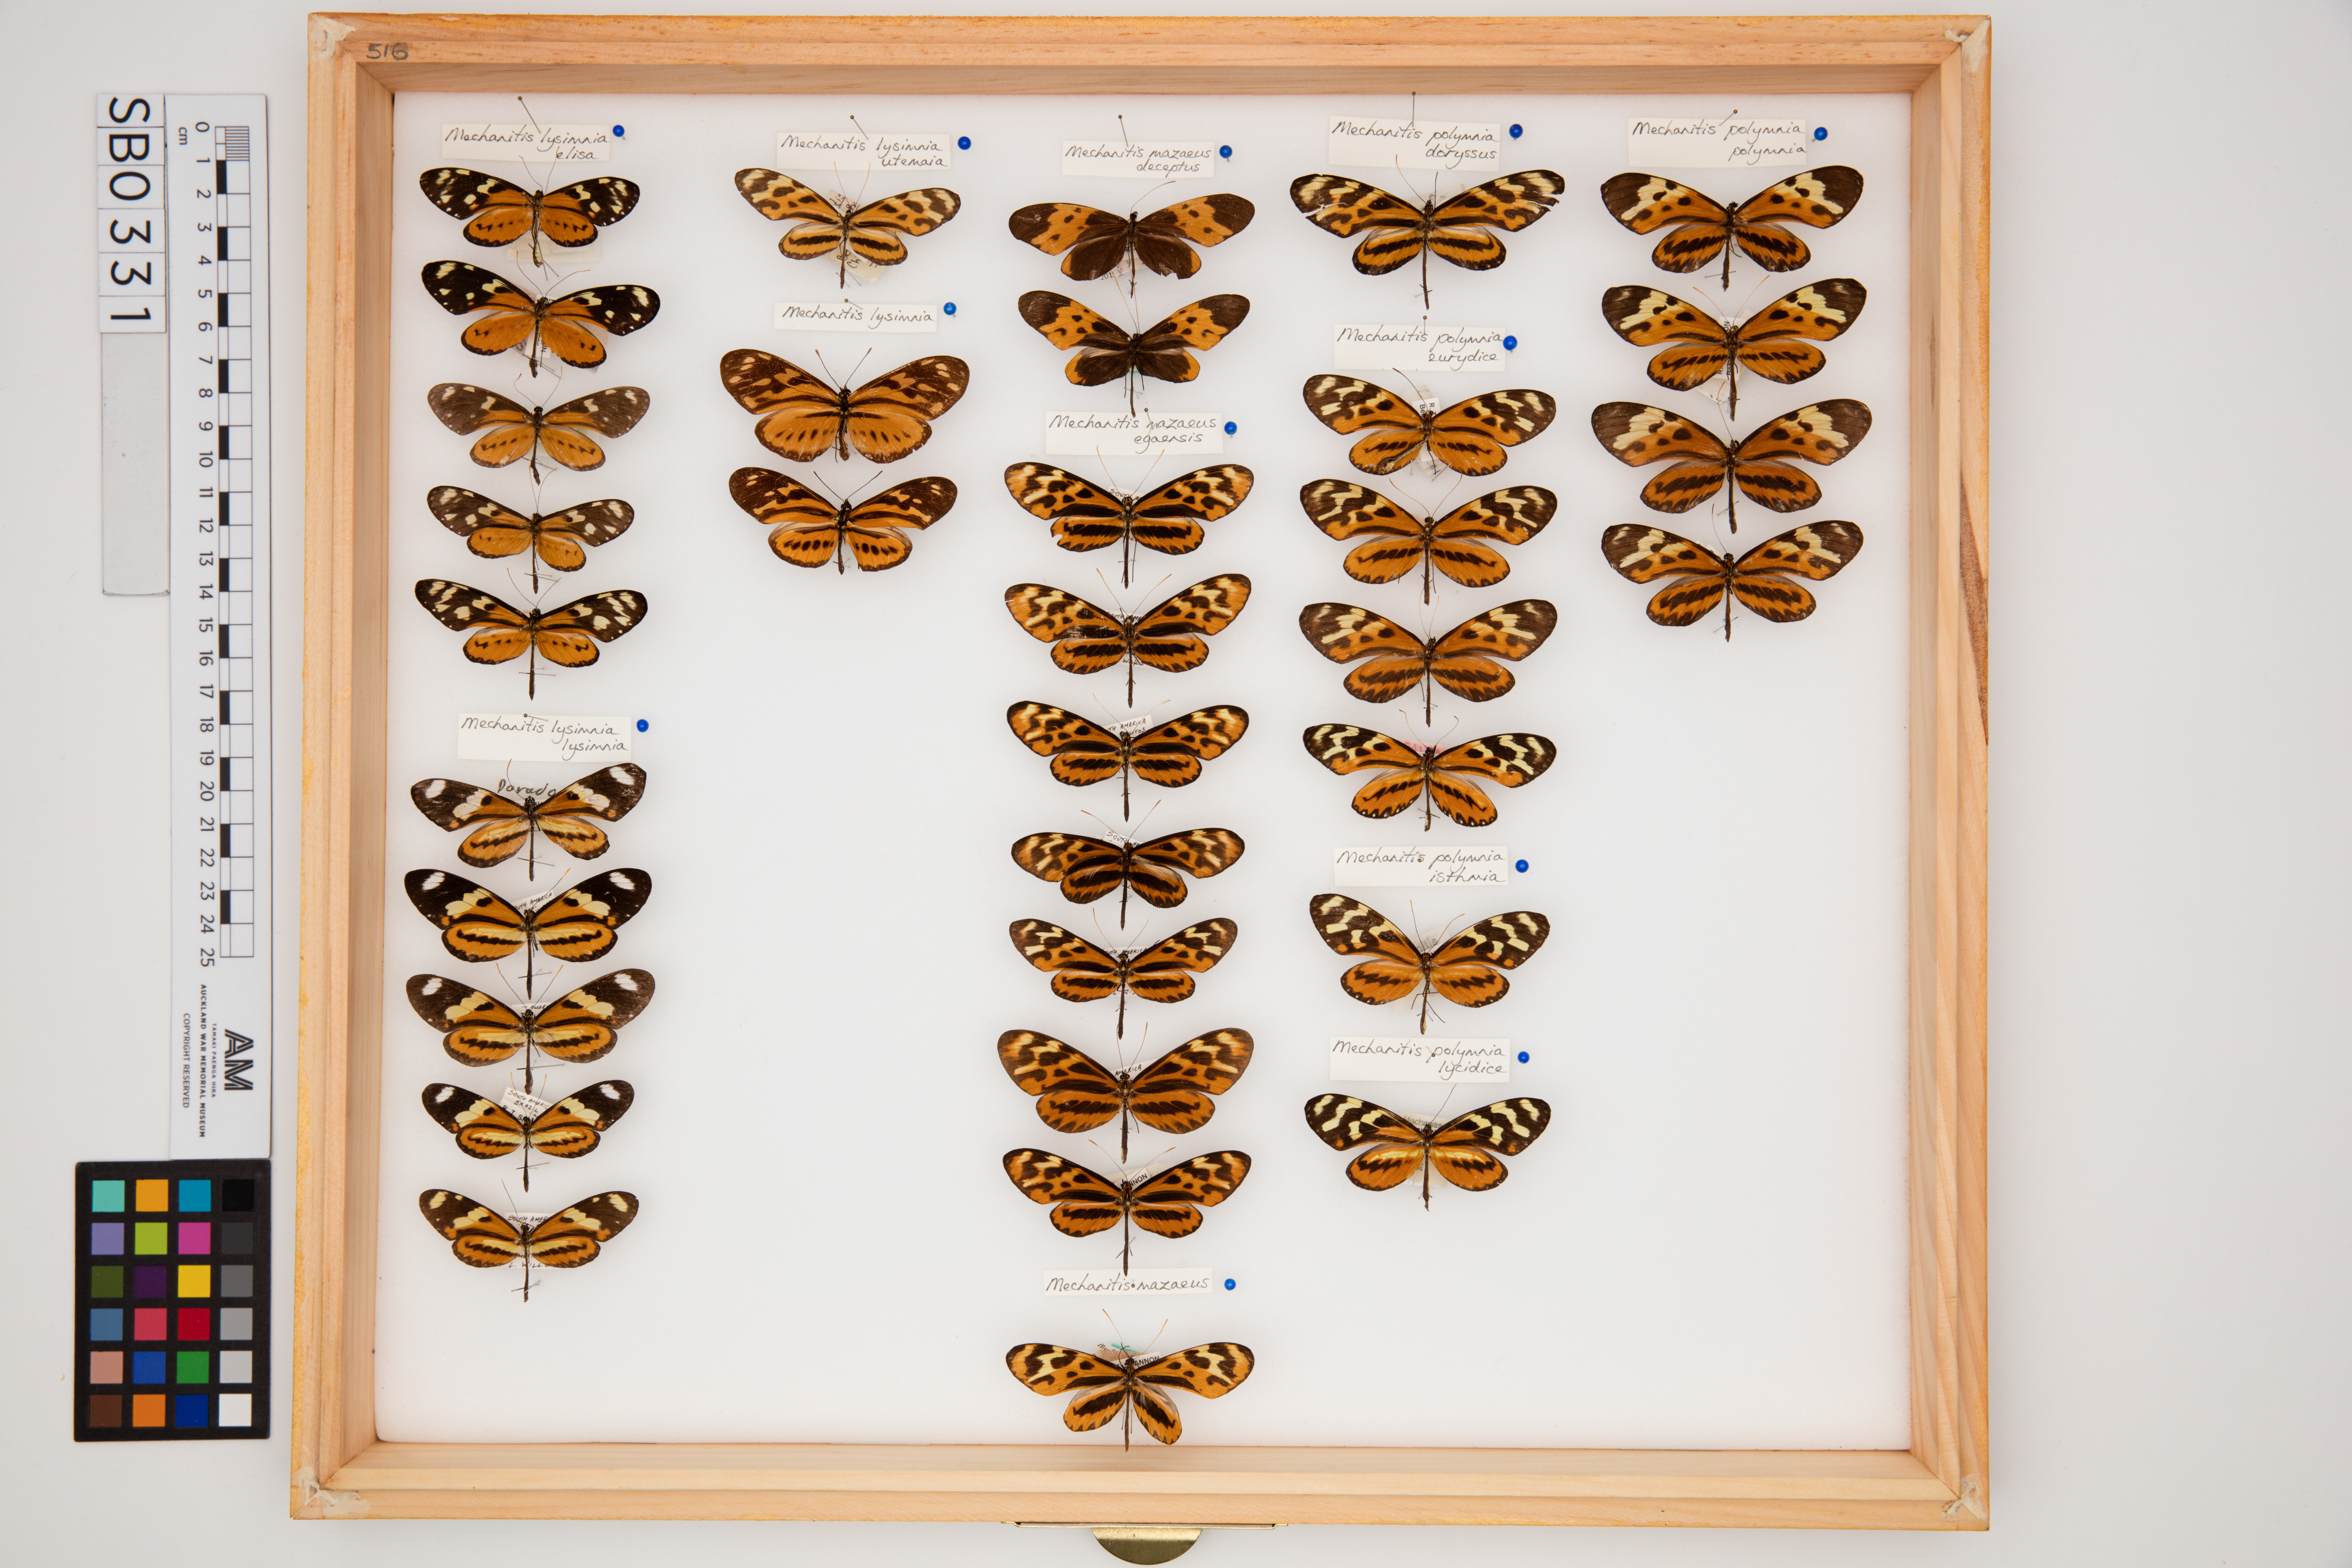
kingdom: Animalia
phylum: Arthropoda
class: Insecta
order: Lepidoptera
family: Nymphalidae
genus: Mechanitis
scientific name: Mechanitis polymnia
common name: Disturbed tigerwing
